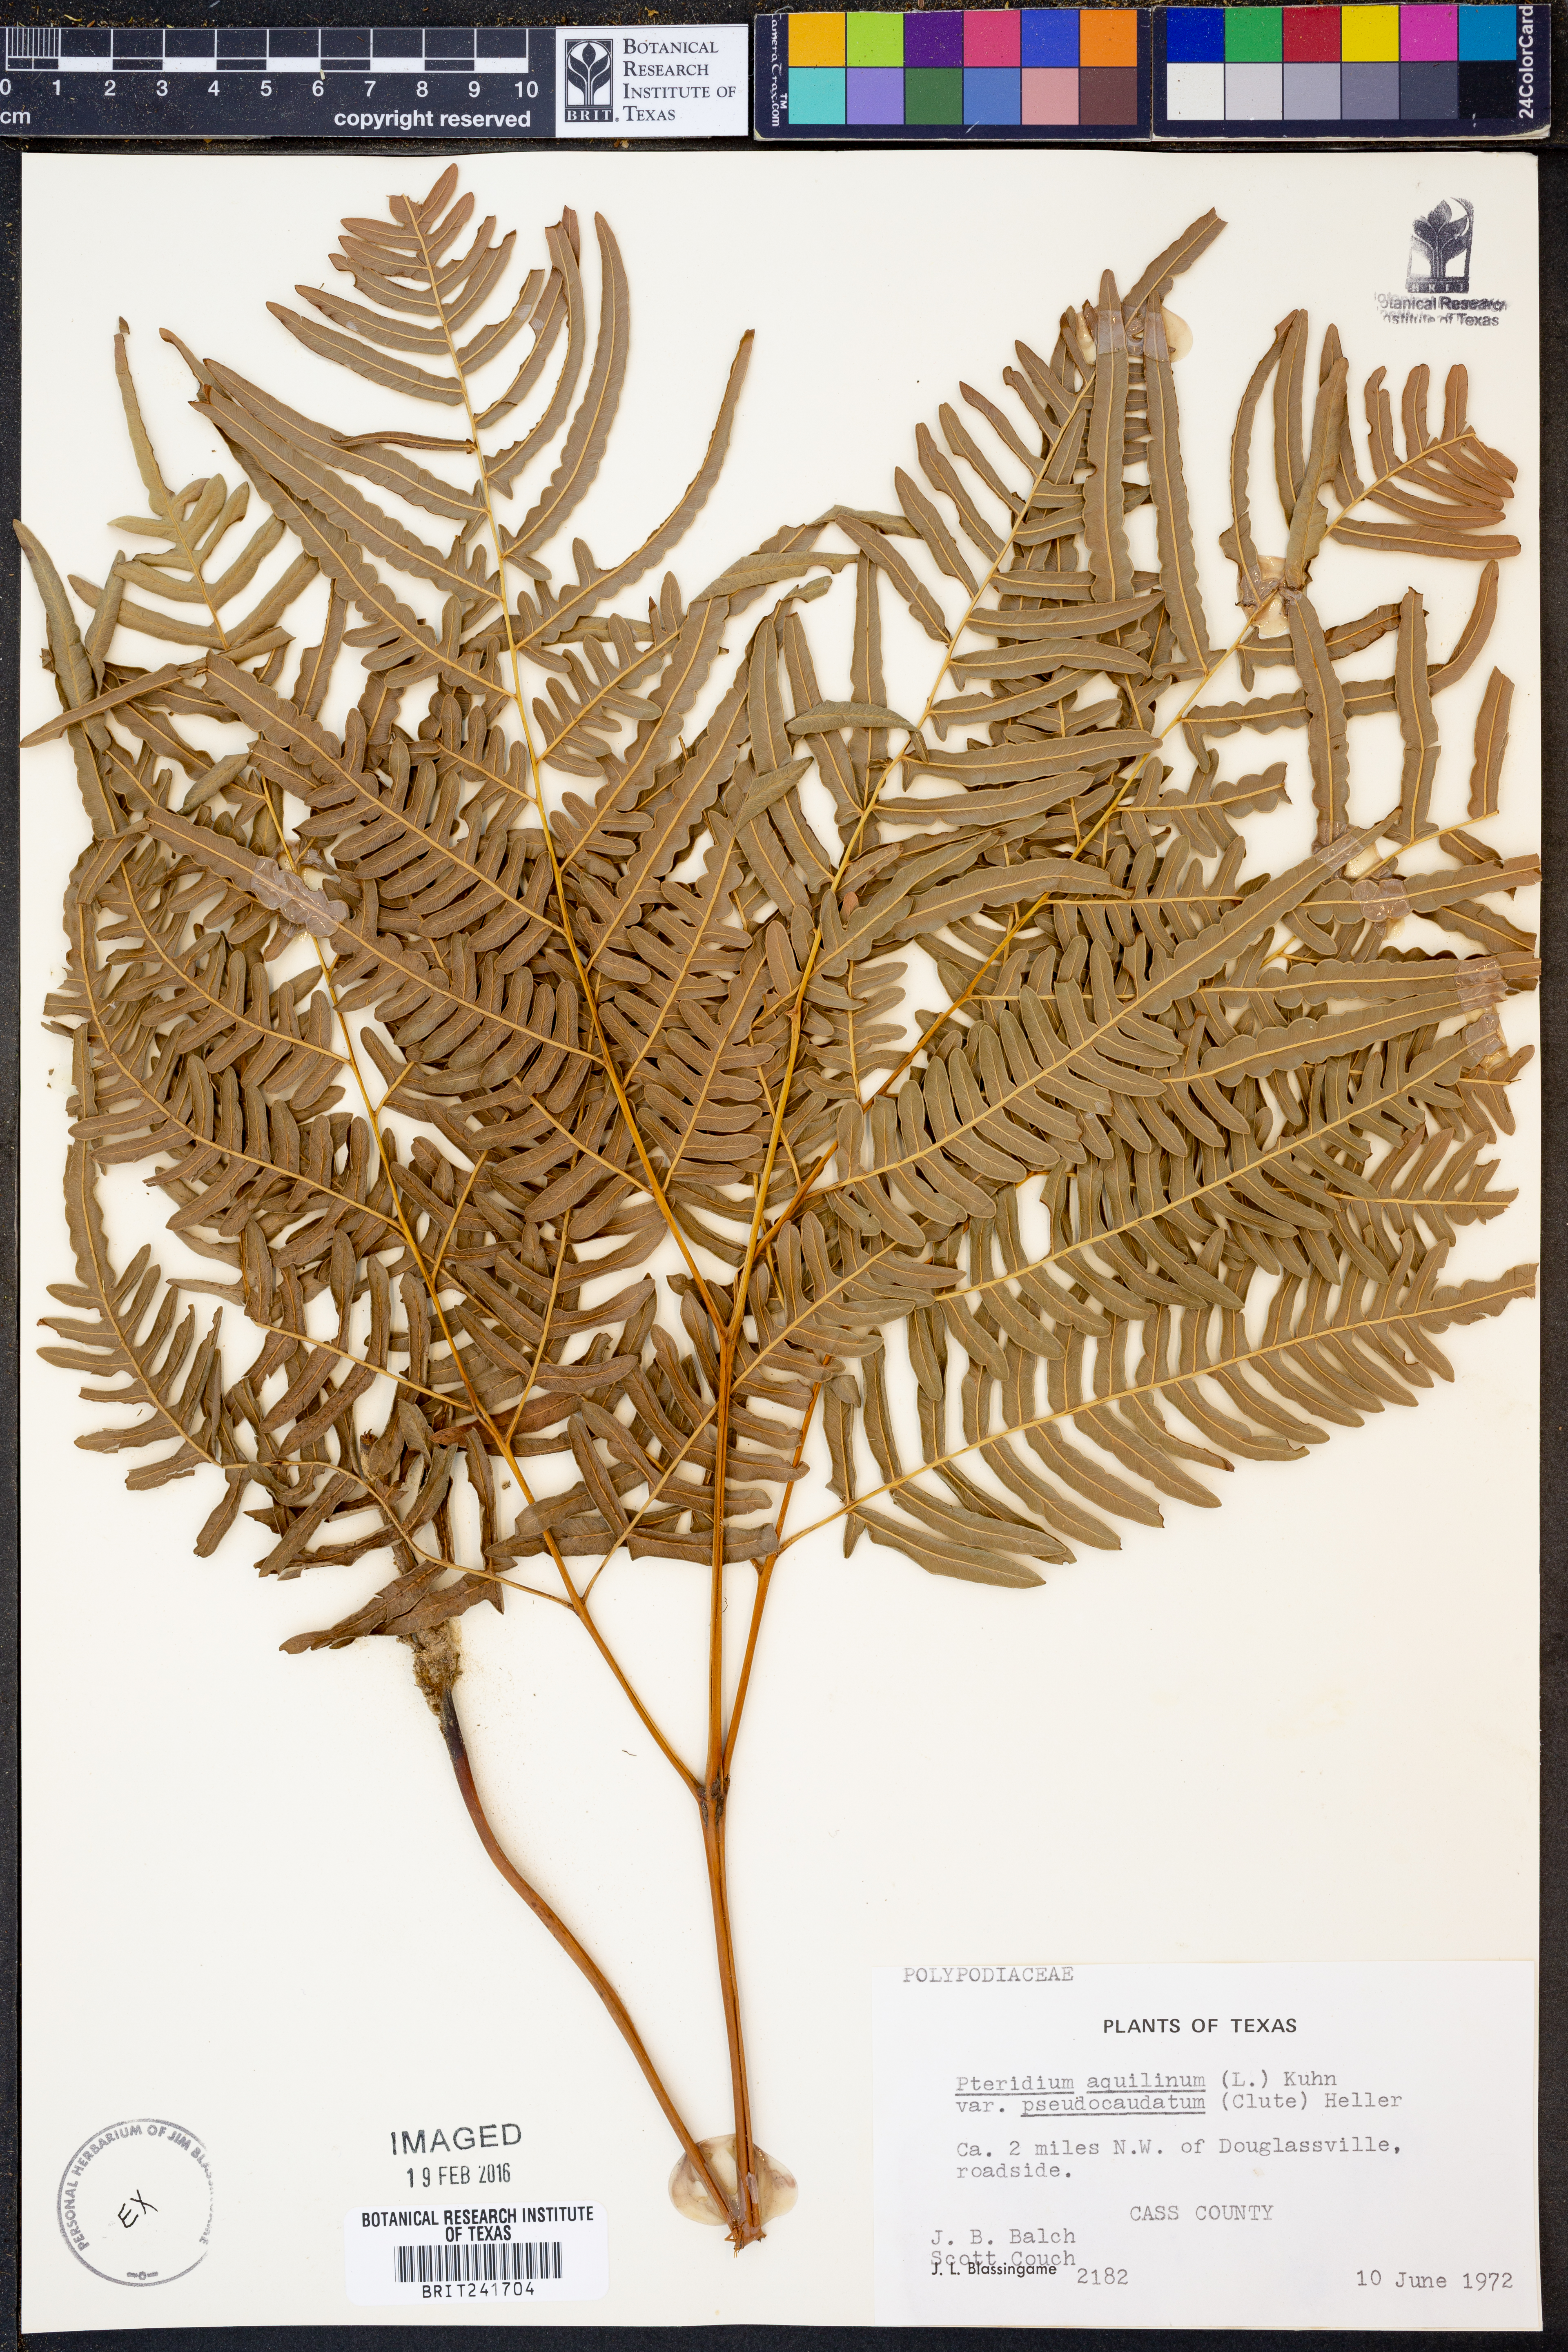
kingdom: Plantae
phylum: Tracheophyta
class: Polypodiopsida
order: Polypodiales
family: Dennstaedtiaceae
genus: Pteridium
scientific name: Pteridium aquilinum
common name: Bracken
